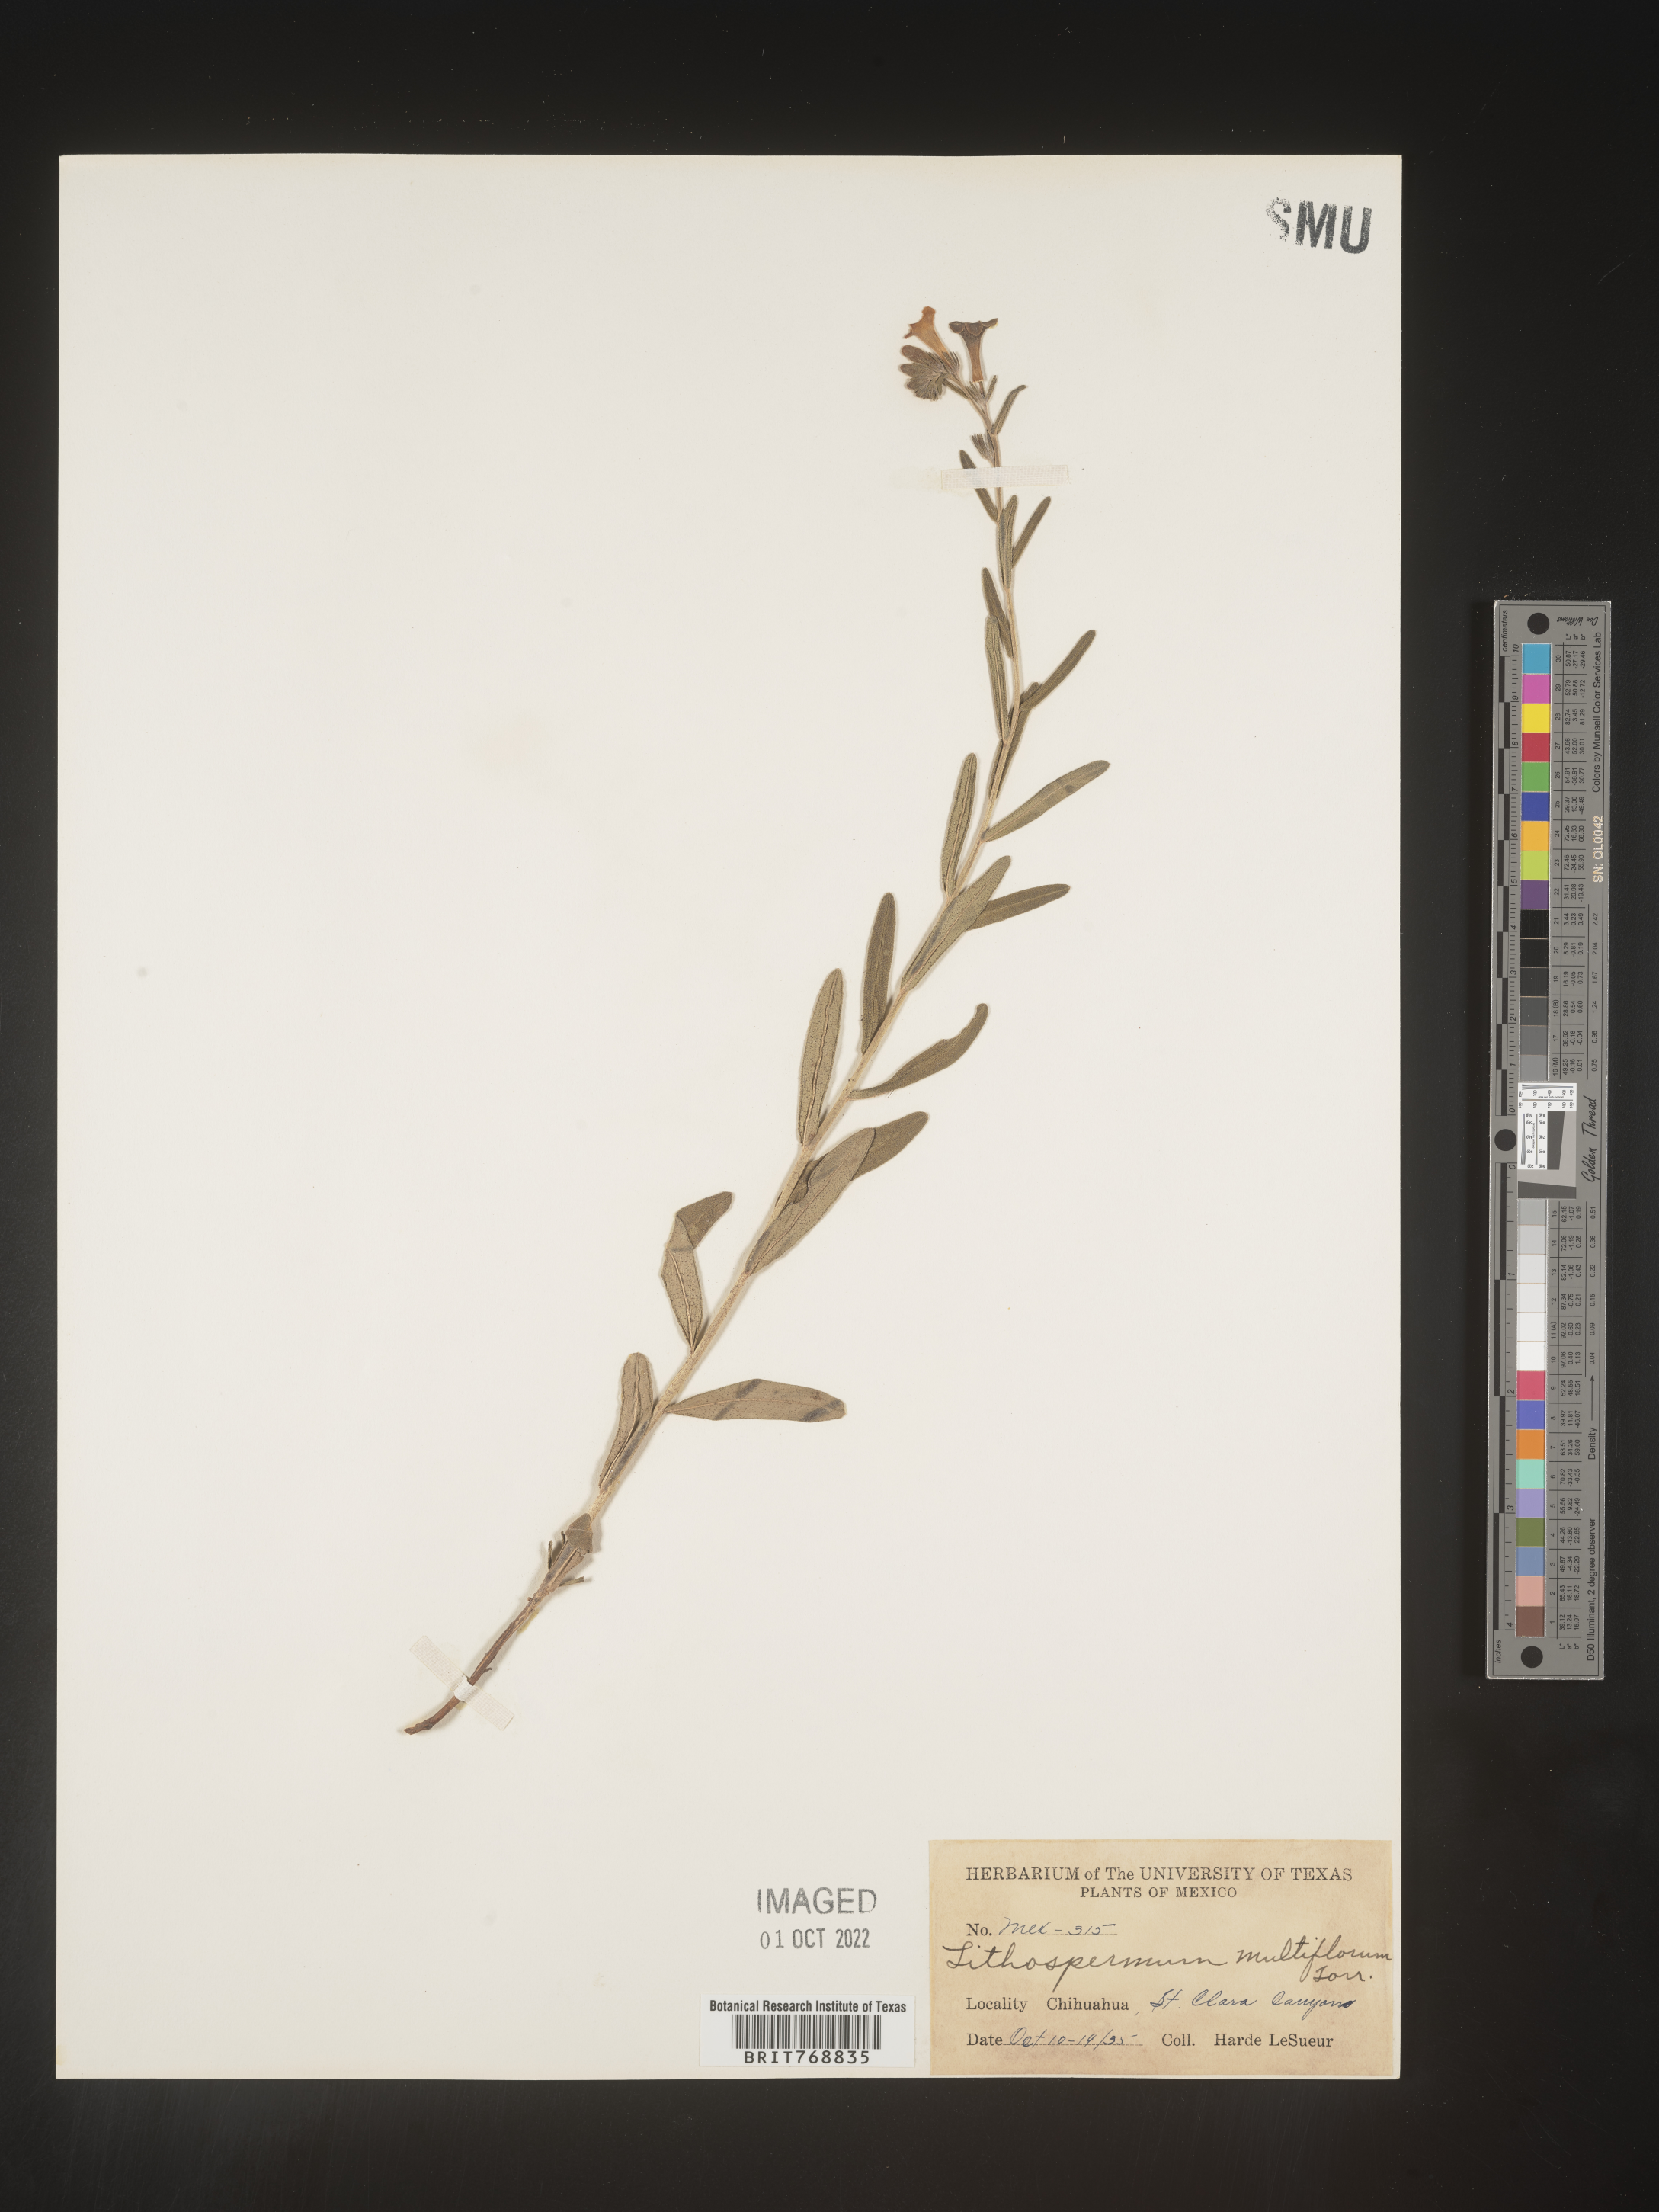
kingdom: Plantae
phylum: Tracheophyta
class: Magnoliopsida
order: Boraginales
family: Boraginaceae
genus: Lithospermum
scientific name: Lithospermum
